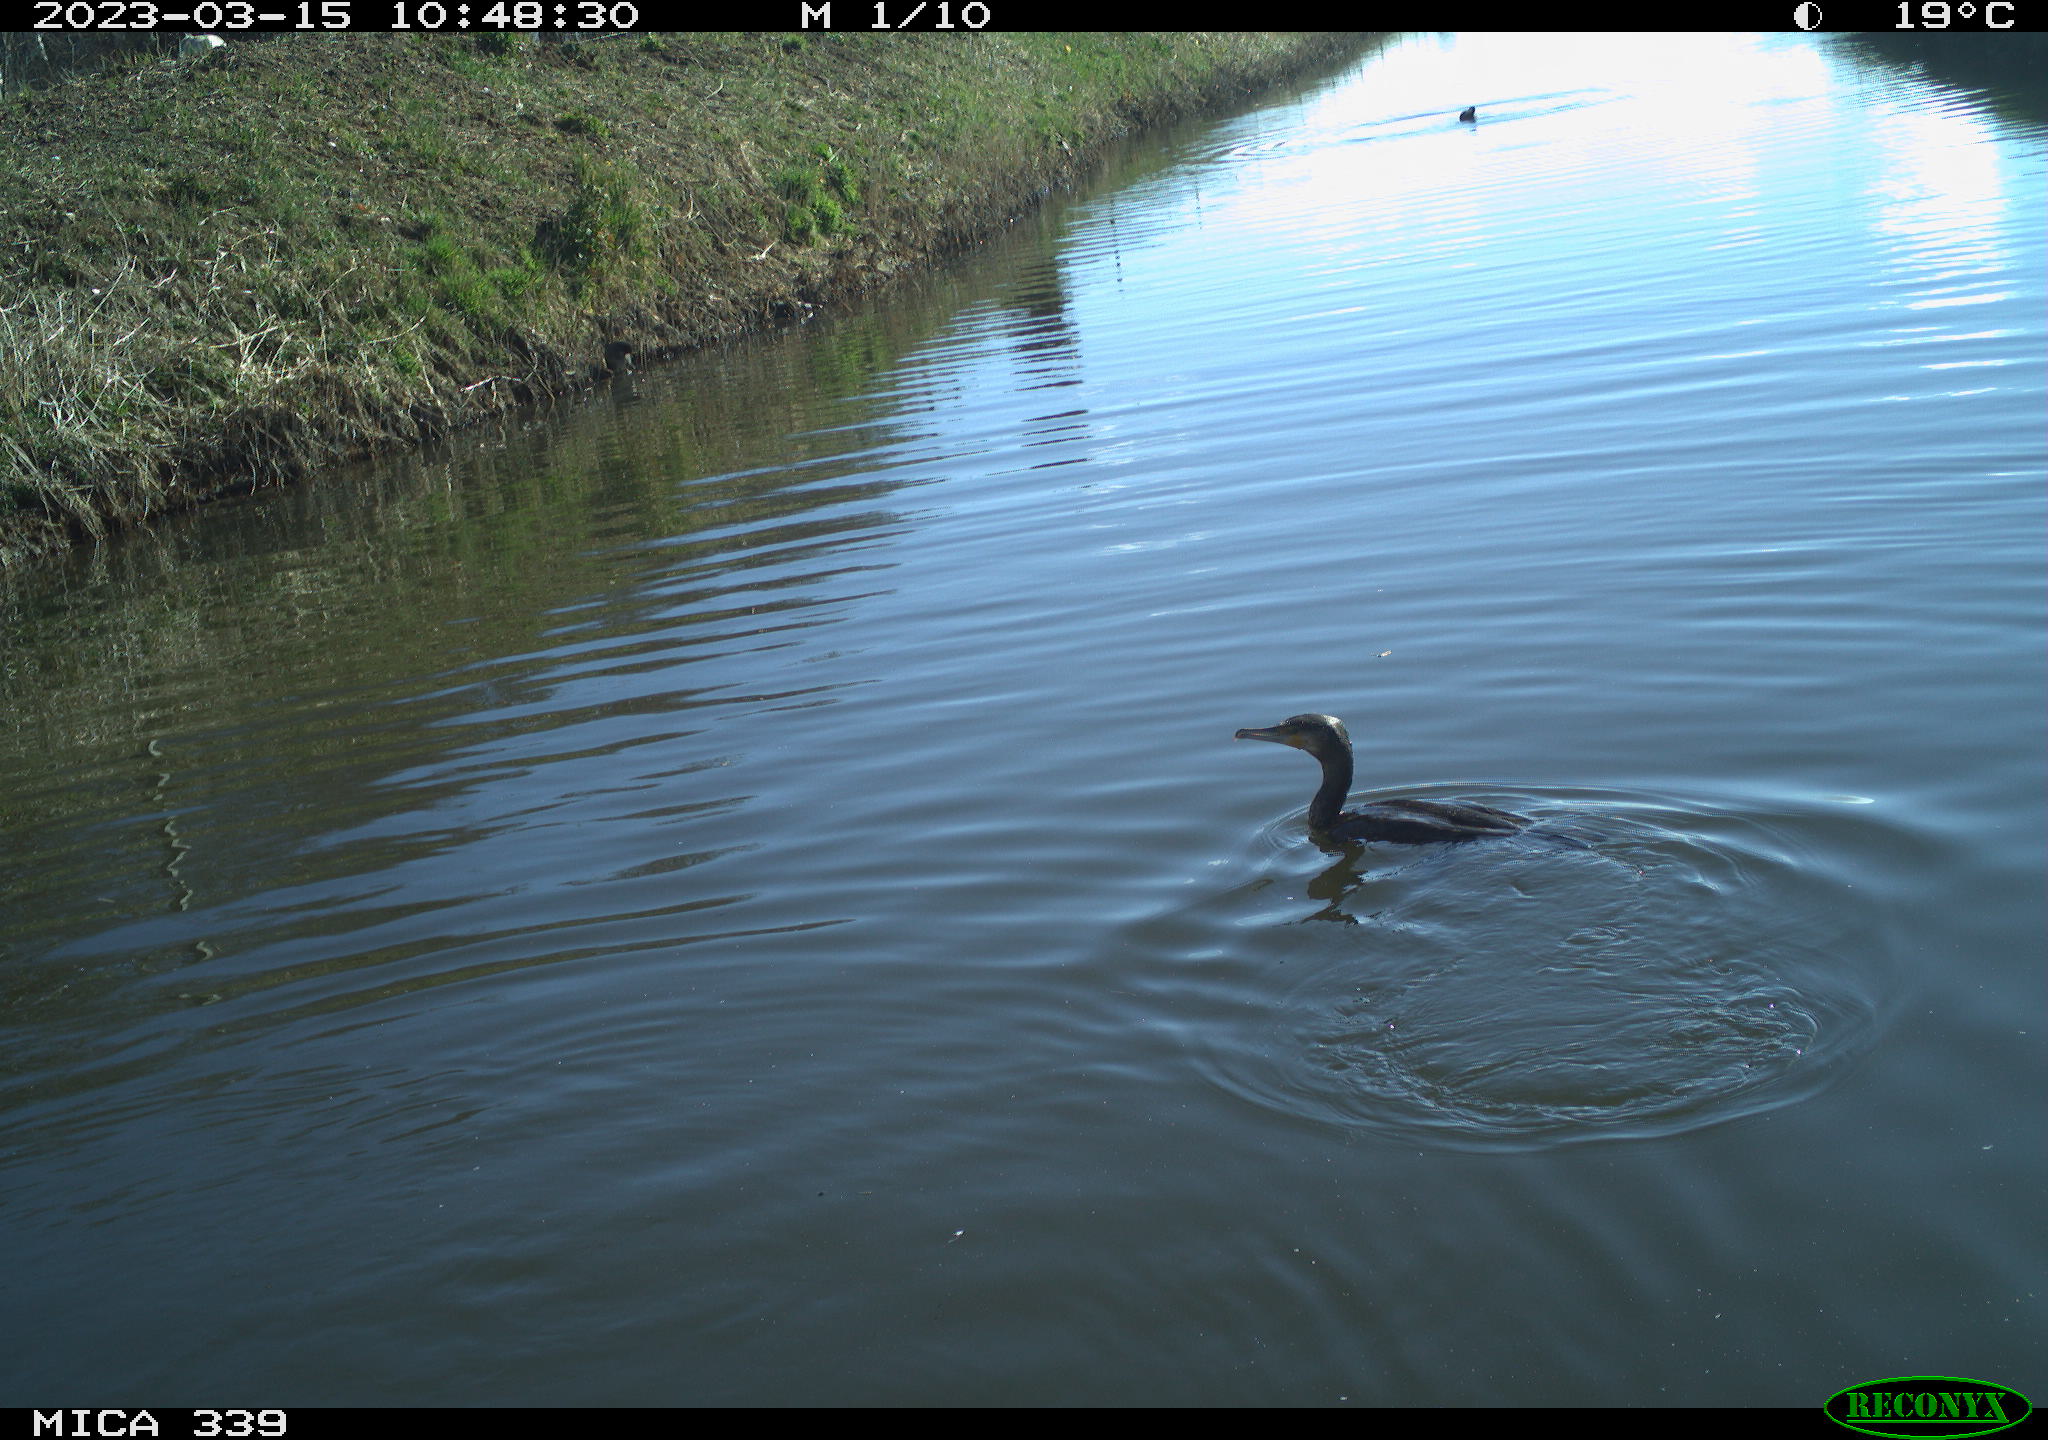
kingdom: Animalia
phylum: Chordata
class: Aves
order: Anseriformes
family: Anatidae
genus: Anas
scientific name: Anas
